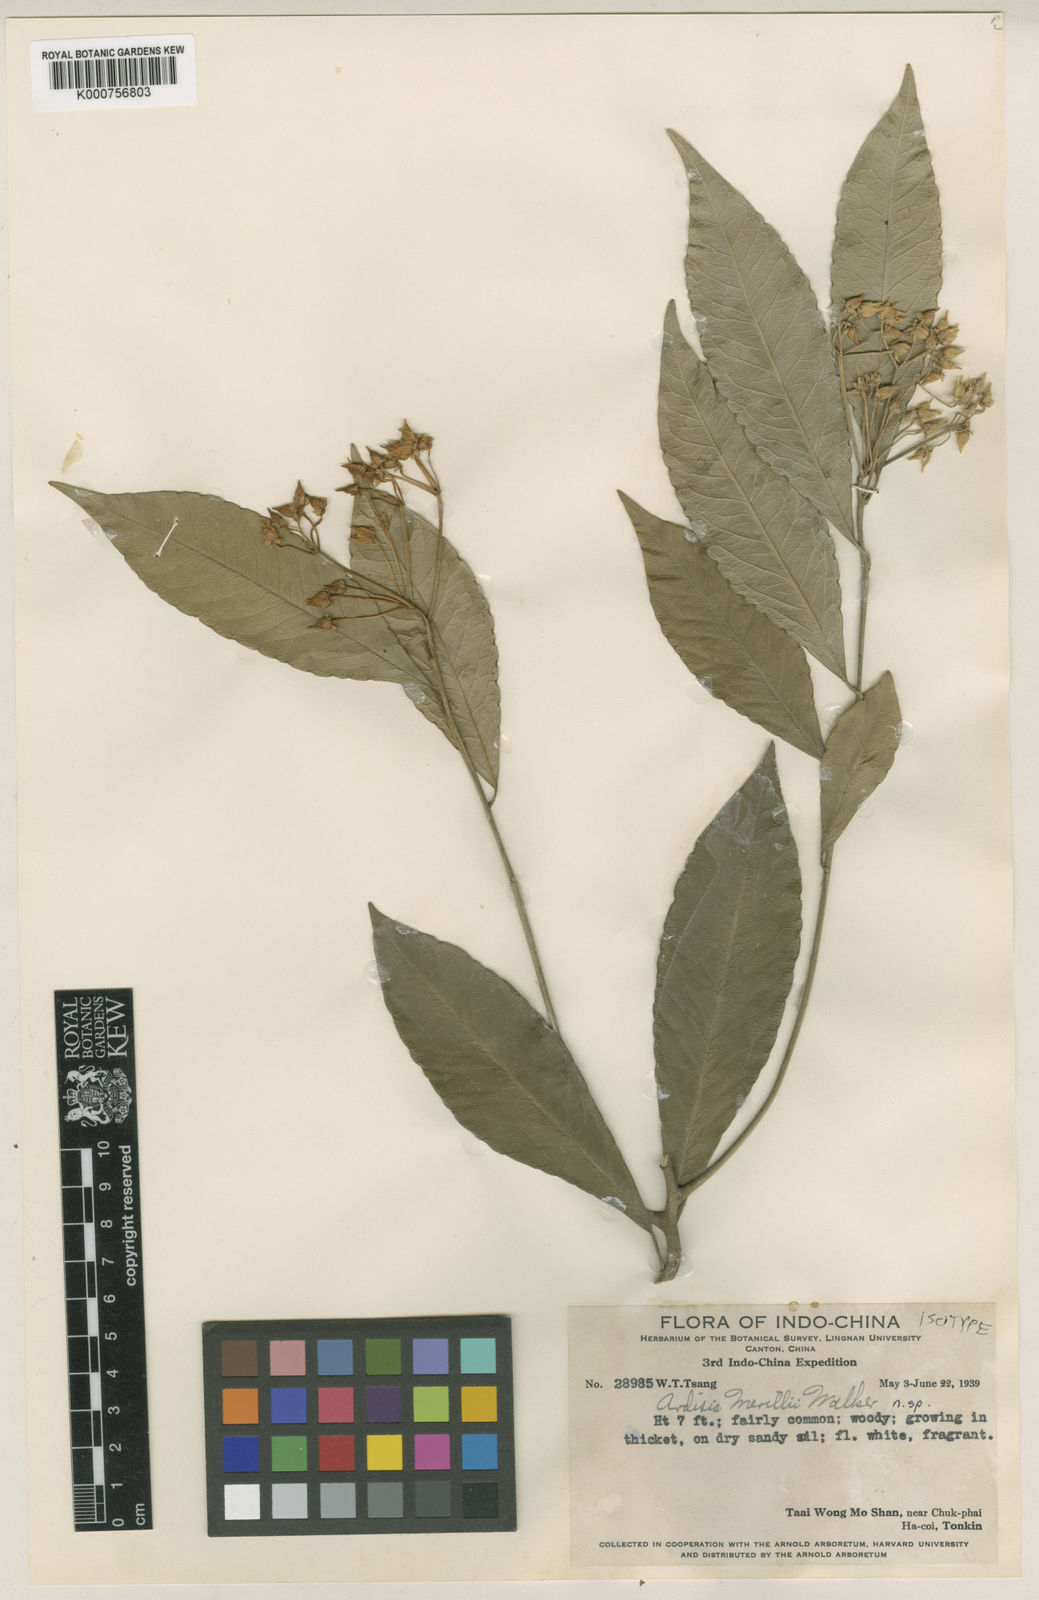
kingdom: Plantae
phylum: Tracheophyta
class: Magnoliopsida
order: Ericales
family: Primulaceae
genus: Ardisia
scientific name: Ardisia merrillii
